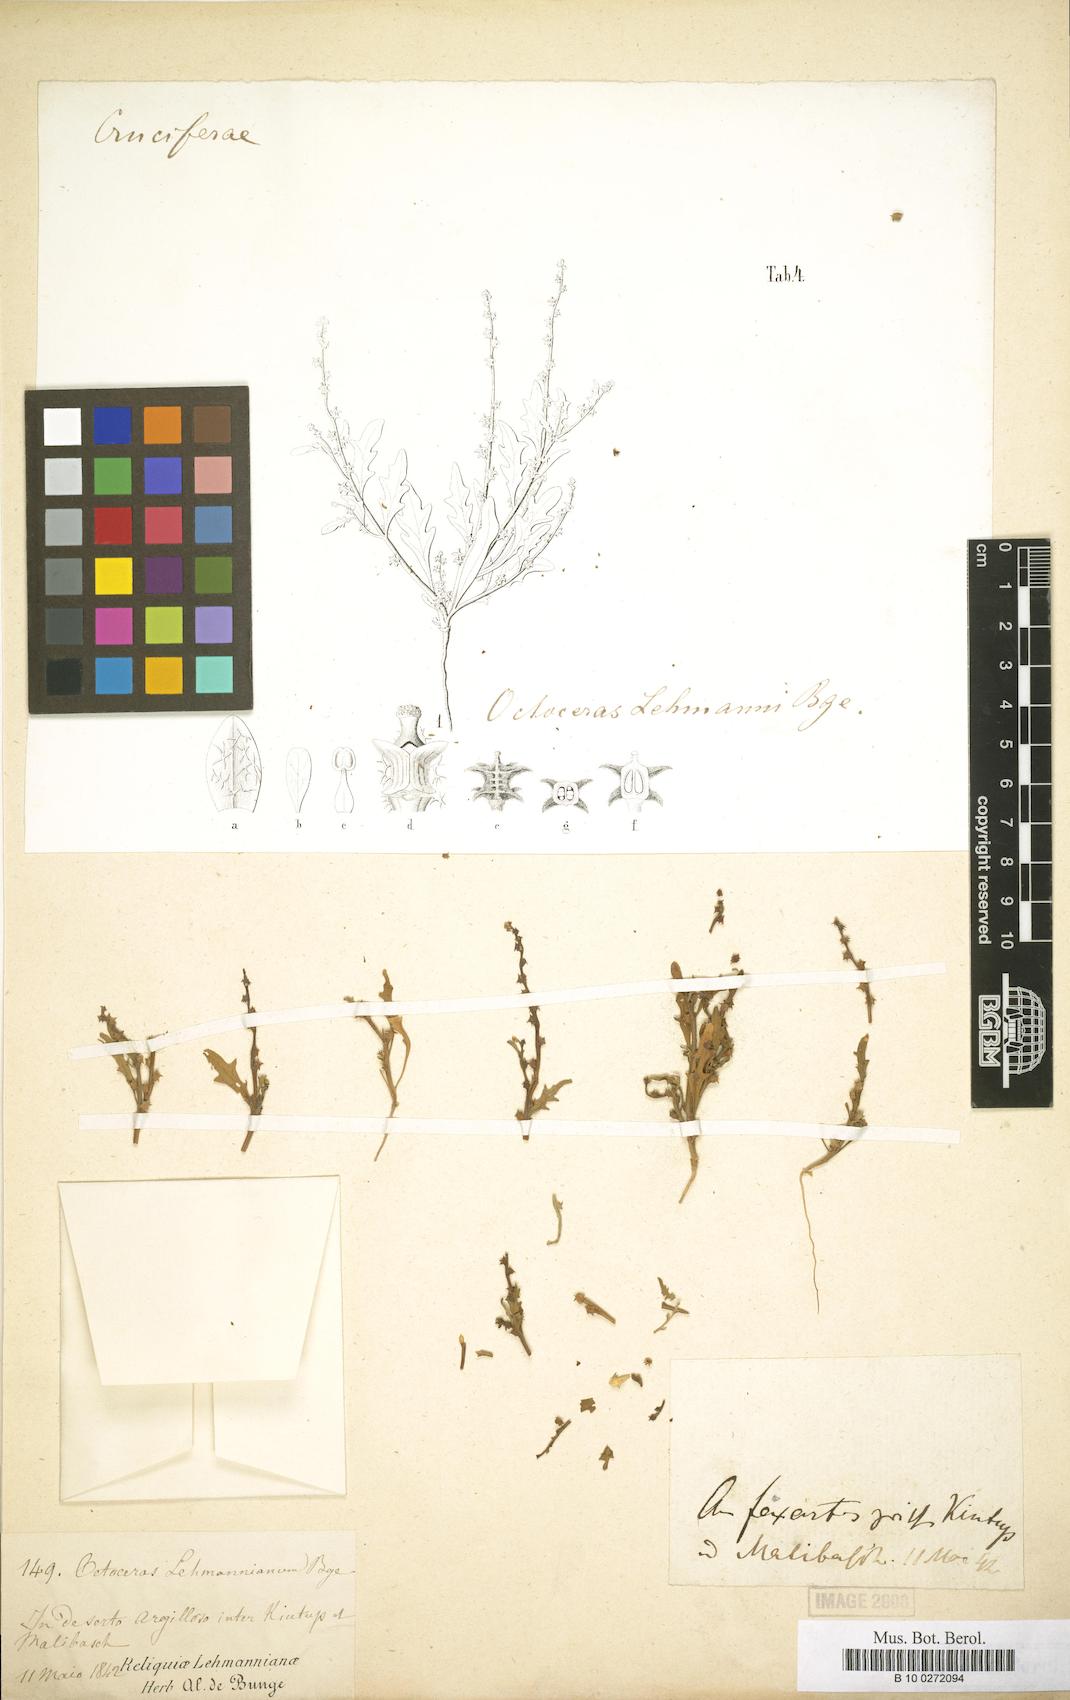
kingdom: Plantae
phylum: Tracheophyta
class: Magnoliopsida
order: Brassicales
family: Brassicaceae
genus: Octoceras
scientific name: Octoceras lehmannianum
